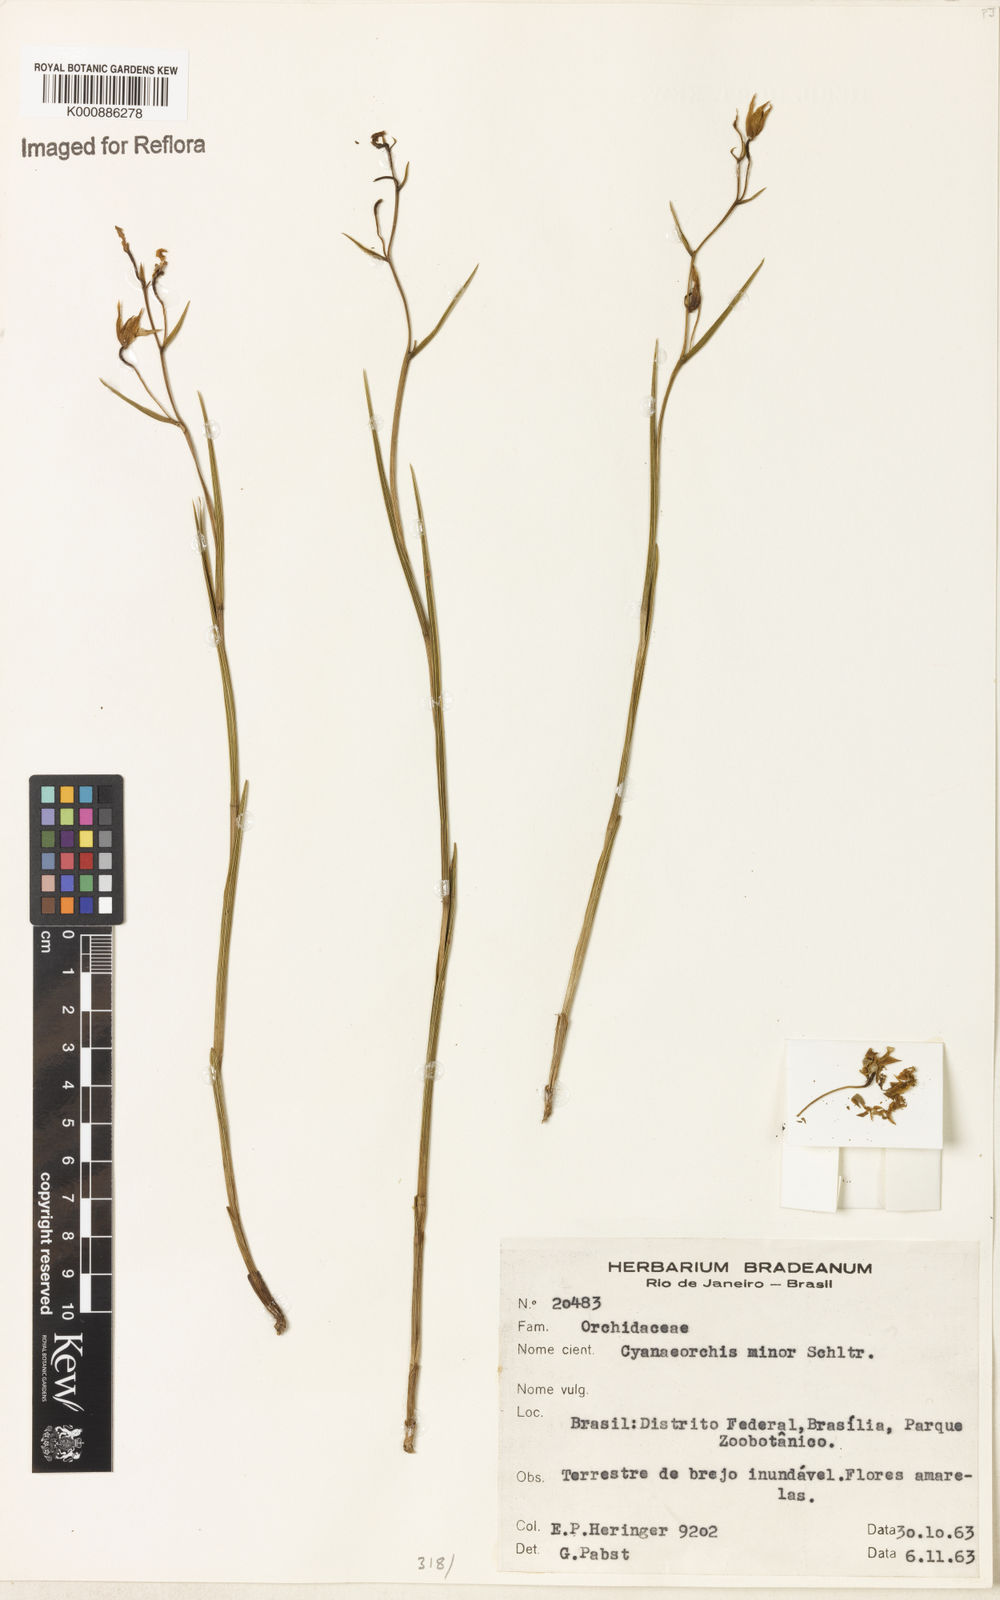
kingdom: Plantae
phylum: Tracheophyta
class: Liliopsida
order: Asparagales
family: Orchidaceae
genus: Cyanaeorchis
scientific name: Cyanaeorchis minor
